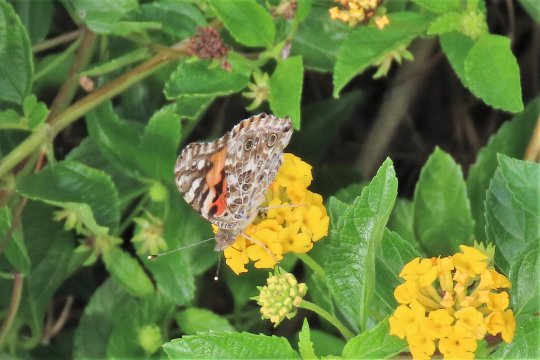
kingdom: Animalia
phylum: Arthropoda
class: Insecta
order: Lepidoptera
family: Nymphalidae
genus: Vanessa
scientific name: Vanessa cardui
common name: Painted Lady
